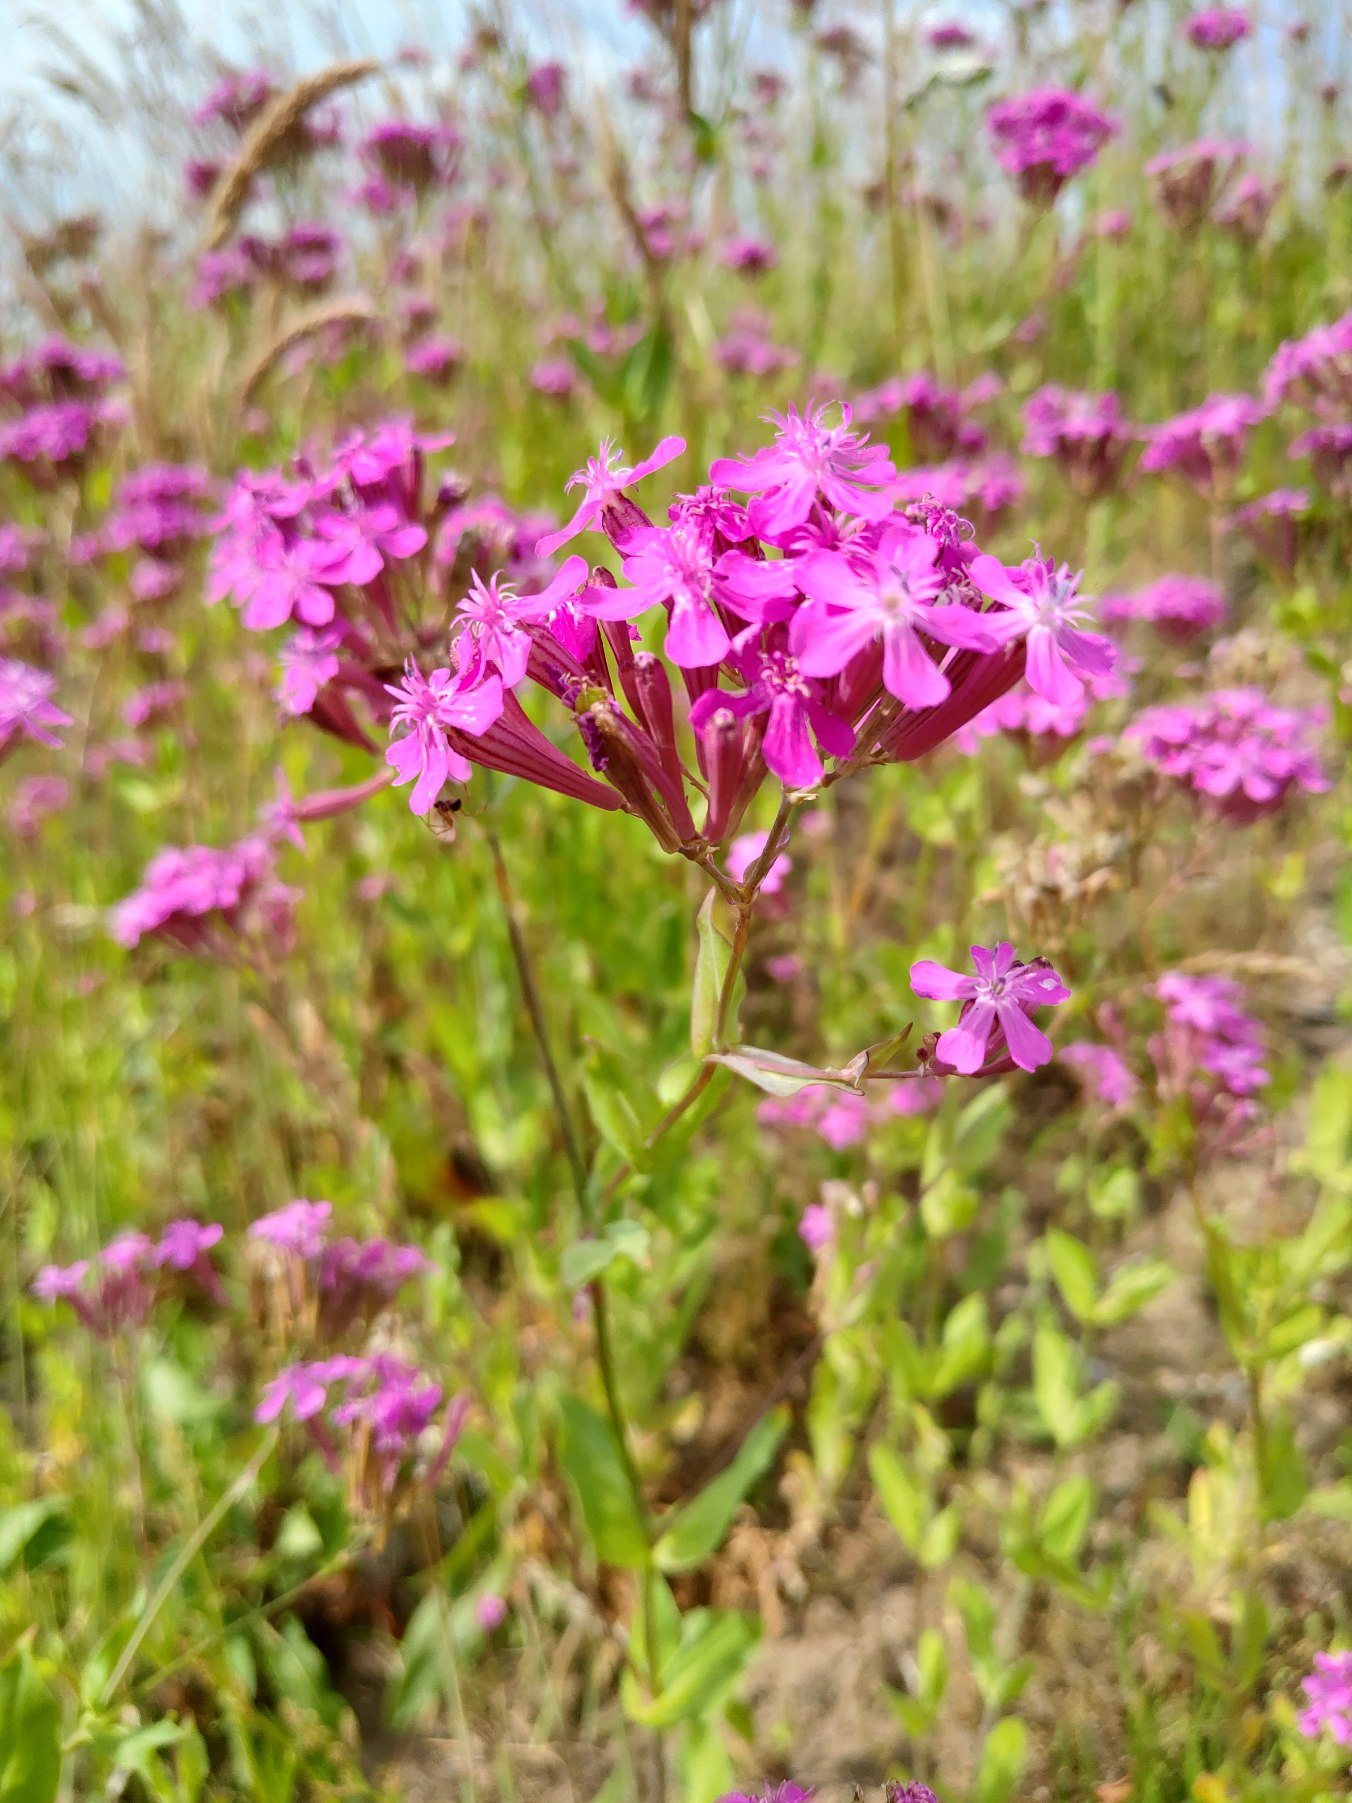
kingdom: Plantae
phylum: Tracheophyta
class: Magnoliopsida
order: Caryophyllales
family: Caryophyllaceae
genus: Atocion
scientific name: Atocion armeria
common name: Knippe-limurt
